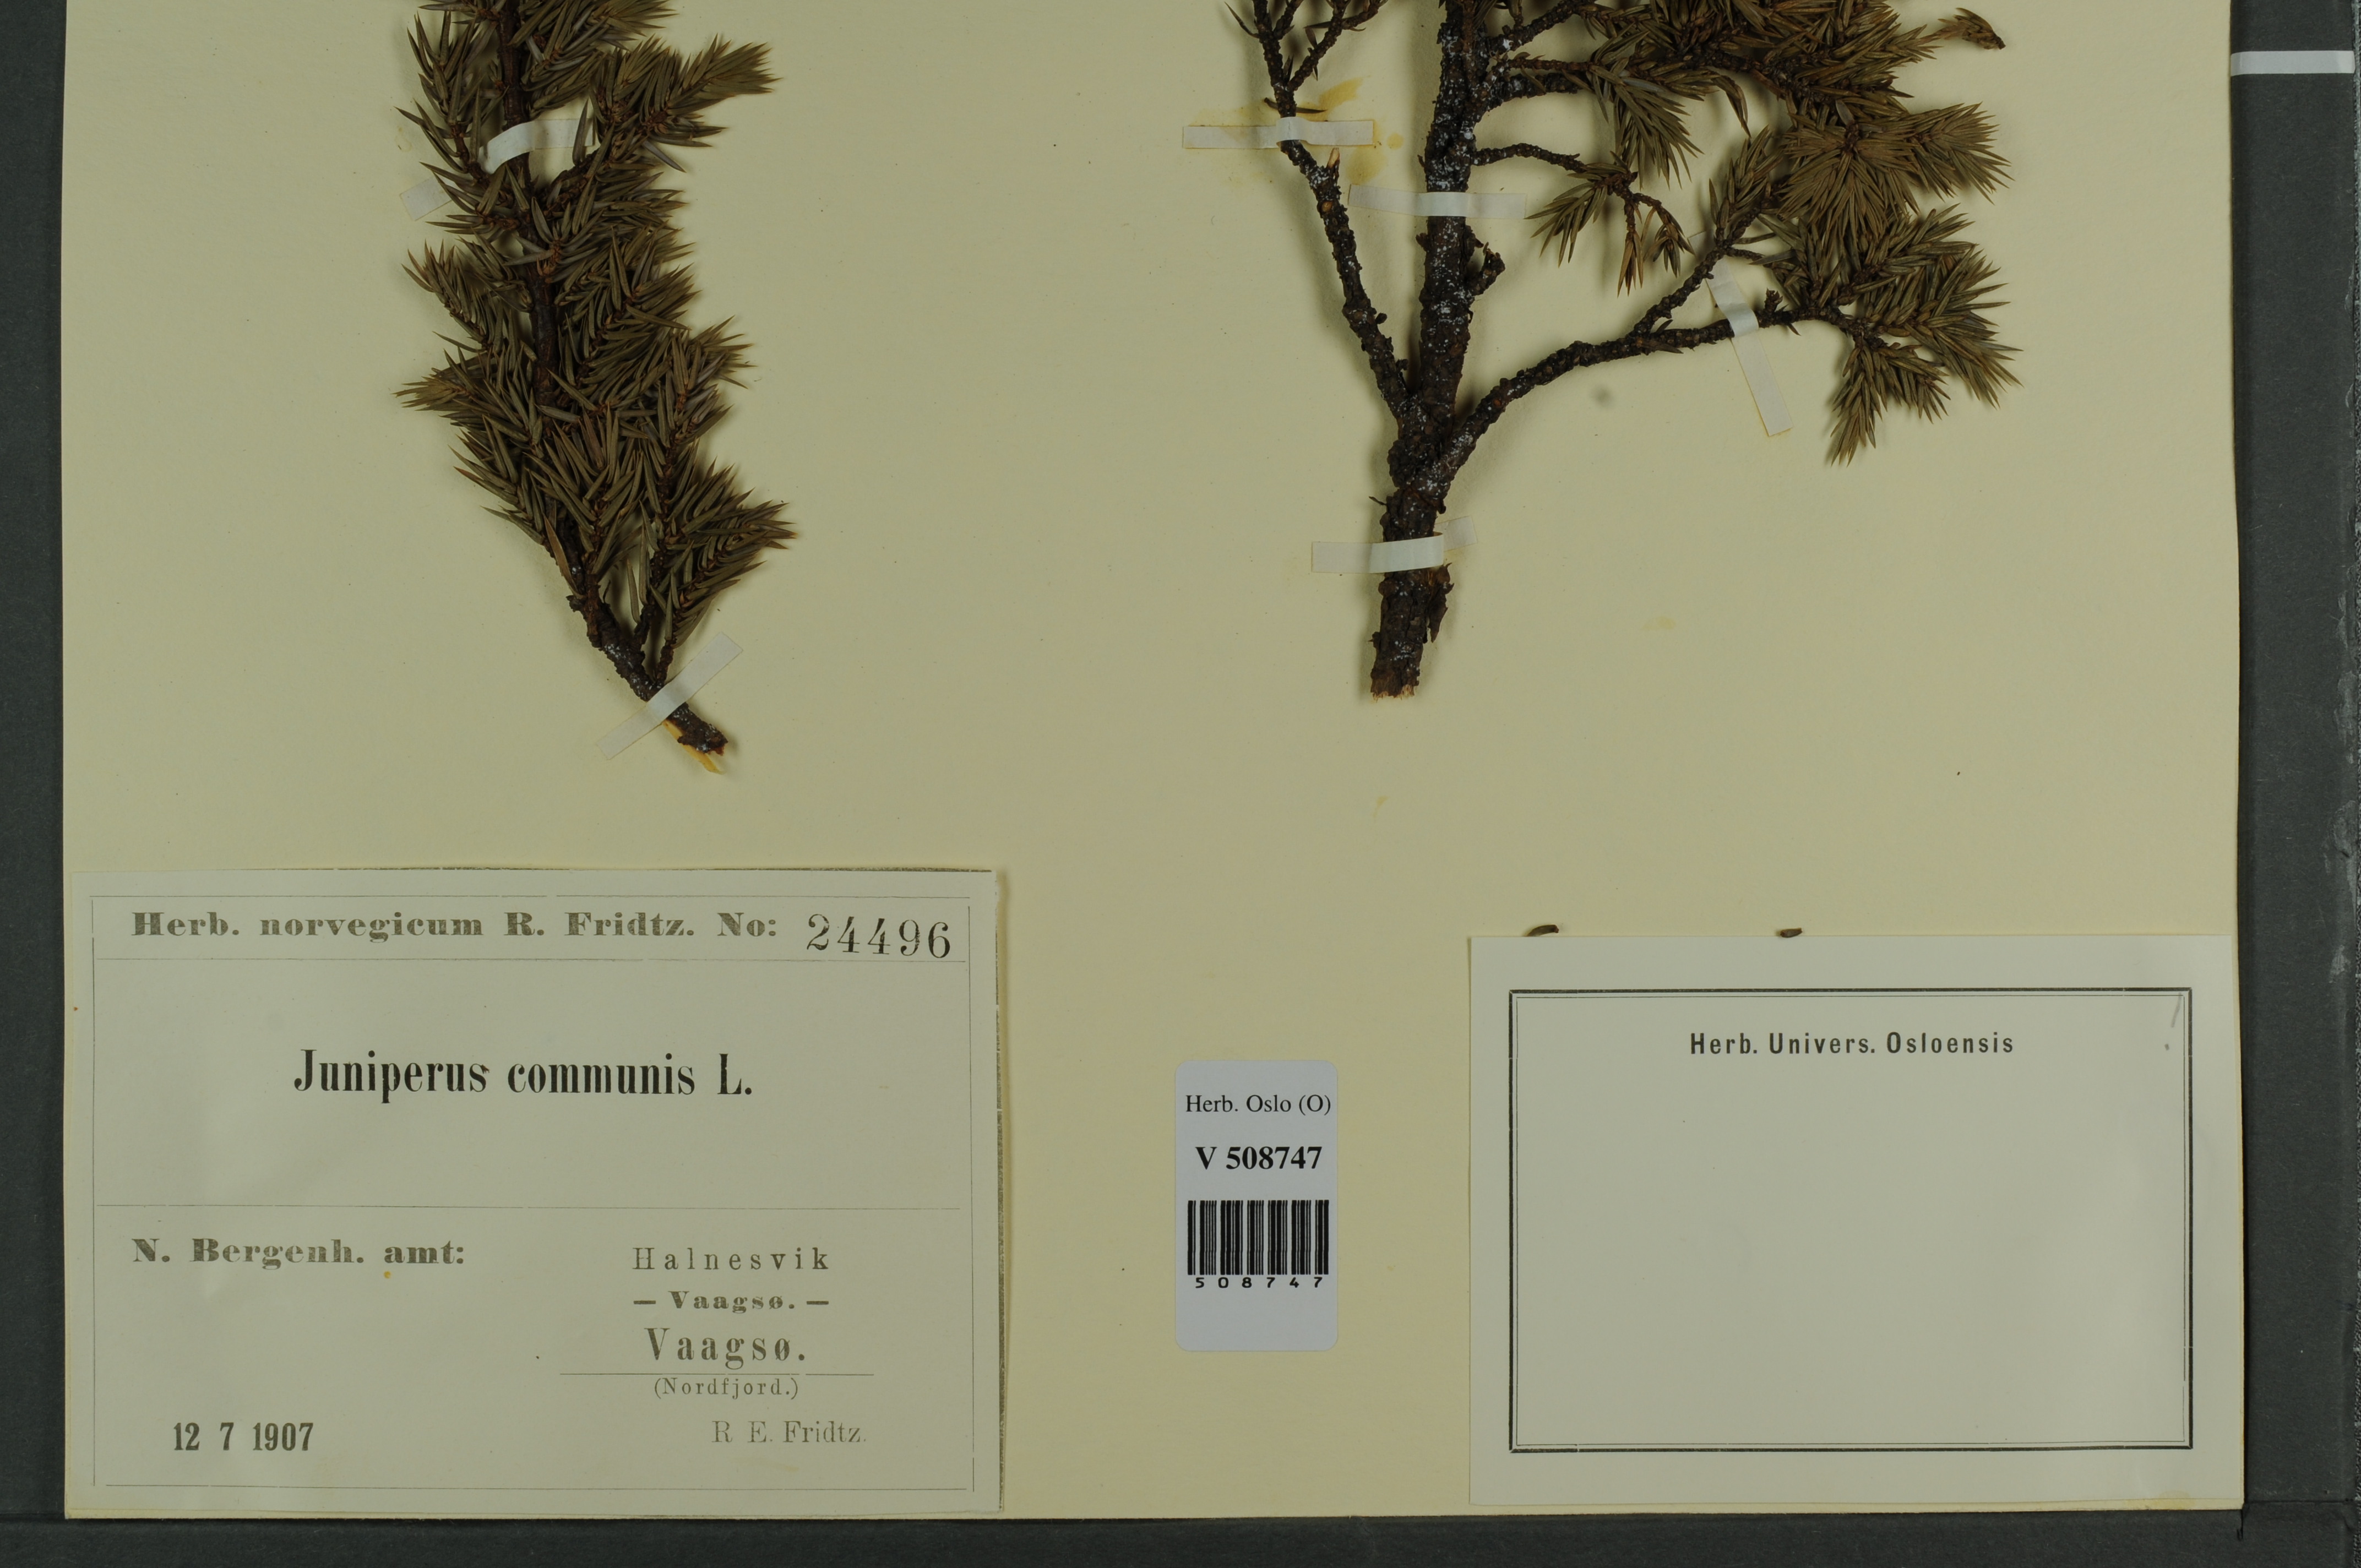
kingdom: Plantae
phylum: Tracheophyta
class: Pinopsida
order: Pinales
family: Cupressaceae
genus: Juniperus
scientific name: Juniperus communis
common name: Common juniper
